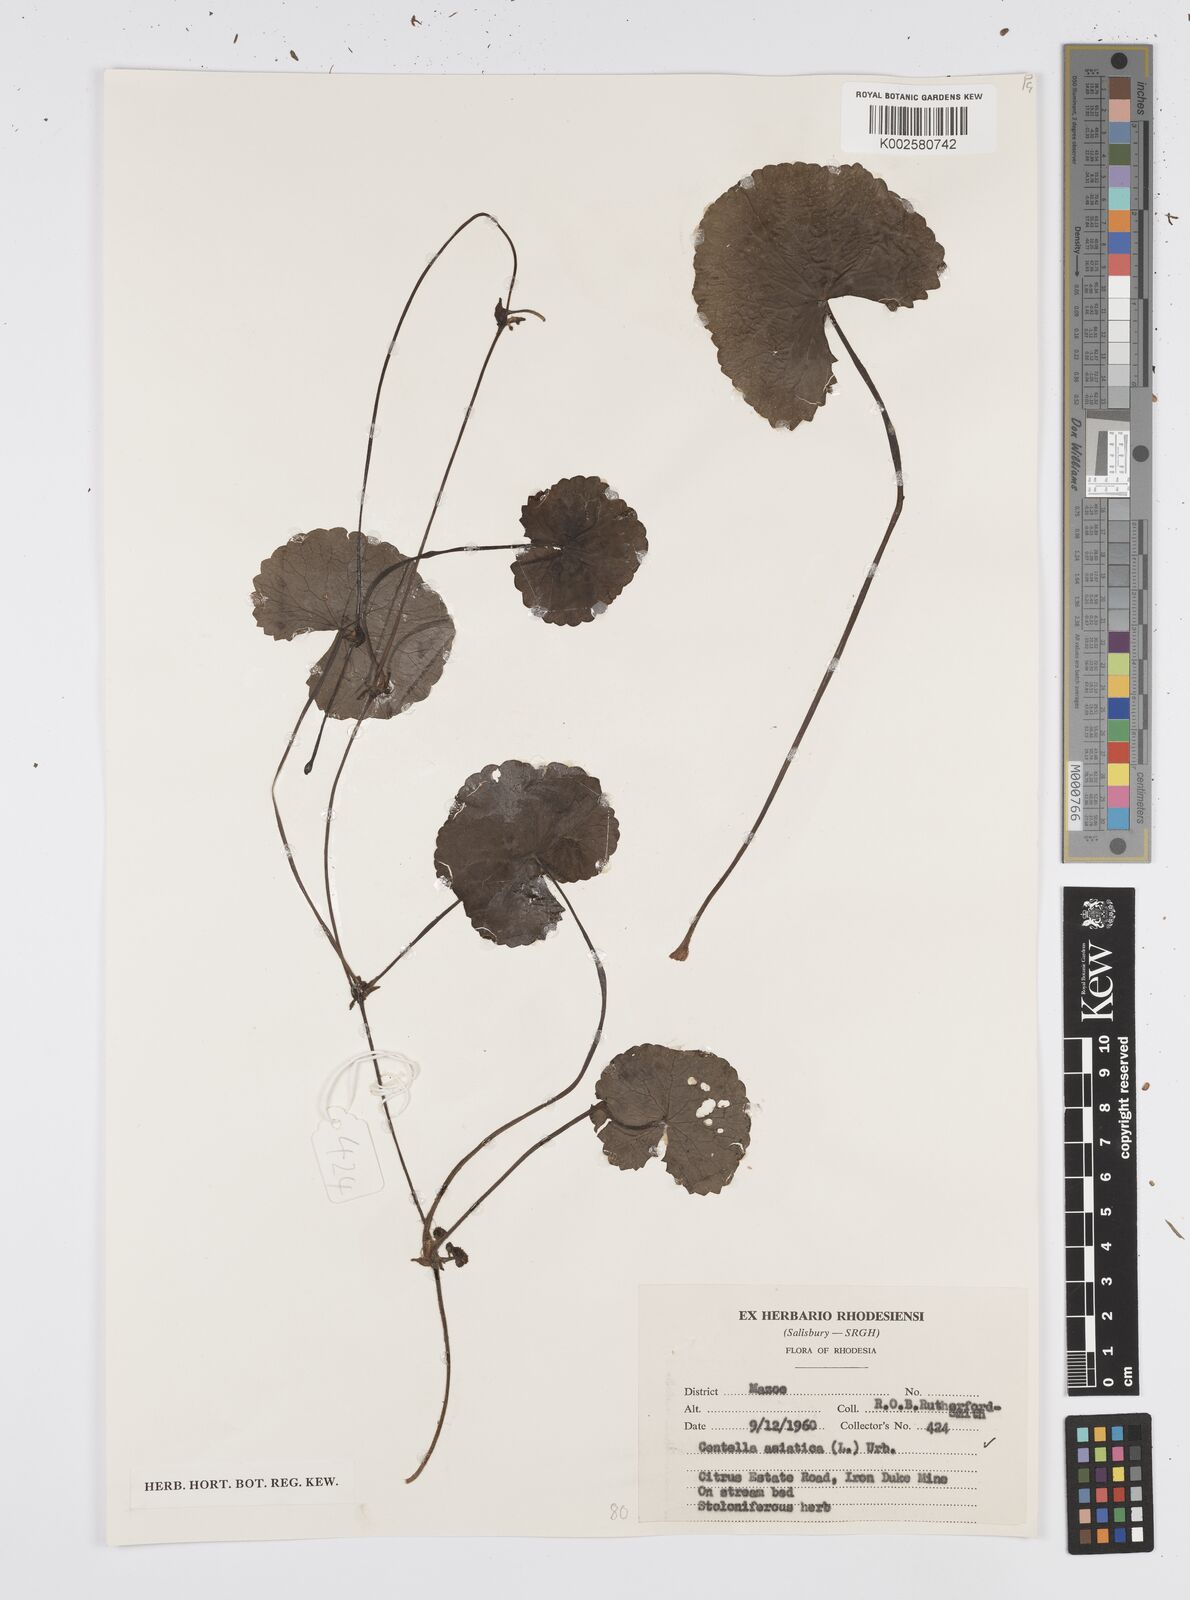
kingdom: Plantae
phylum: Tracheophyta
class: Magnoliopsida
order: Apiales
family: Apiaceae
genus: Centella
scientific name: Centella asiatica
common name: Spadeleaf
